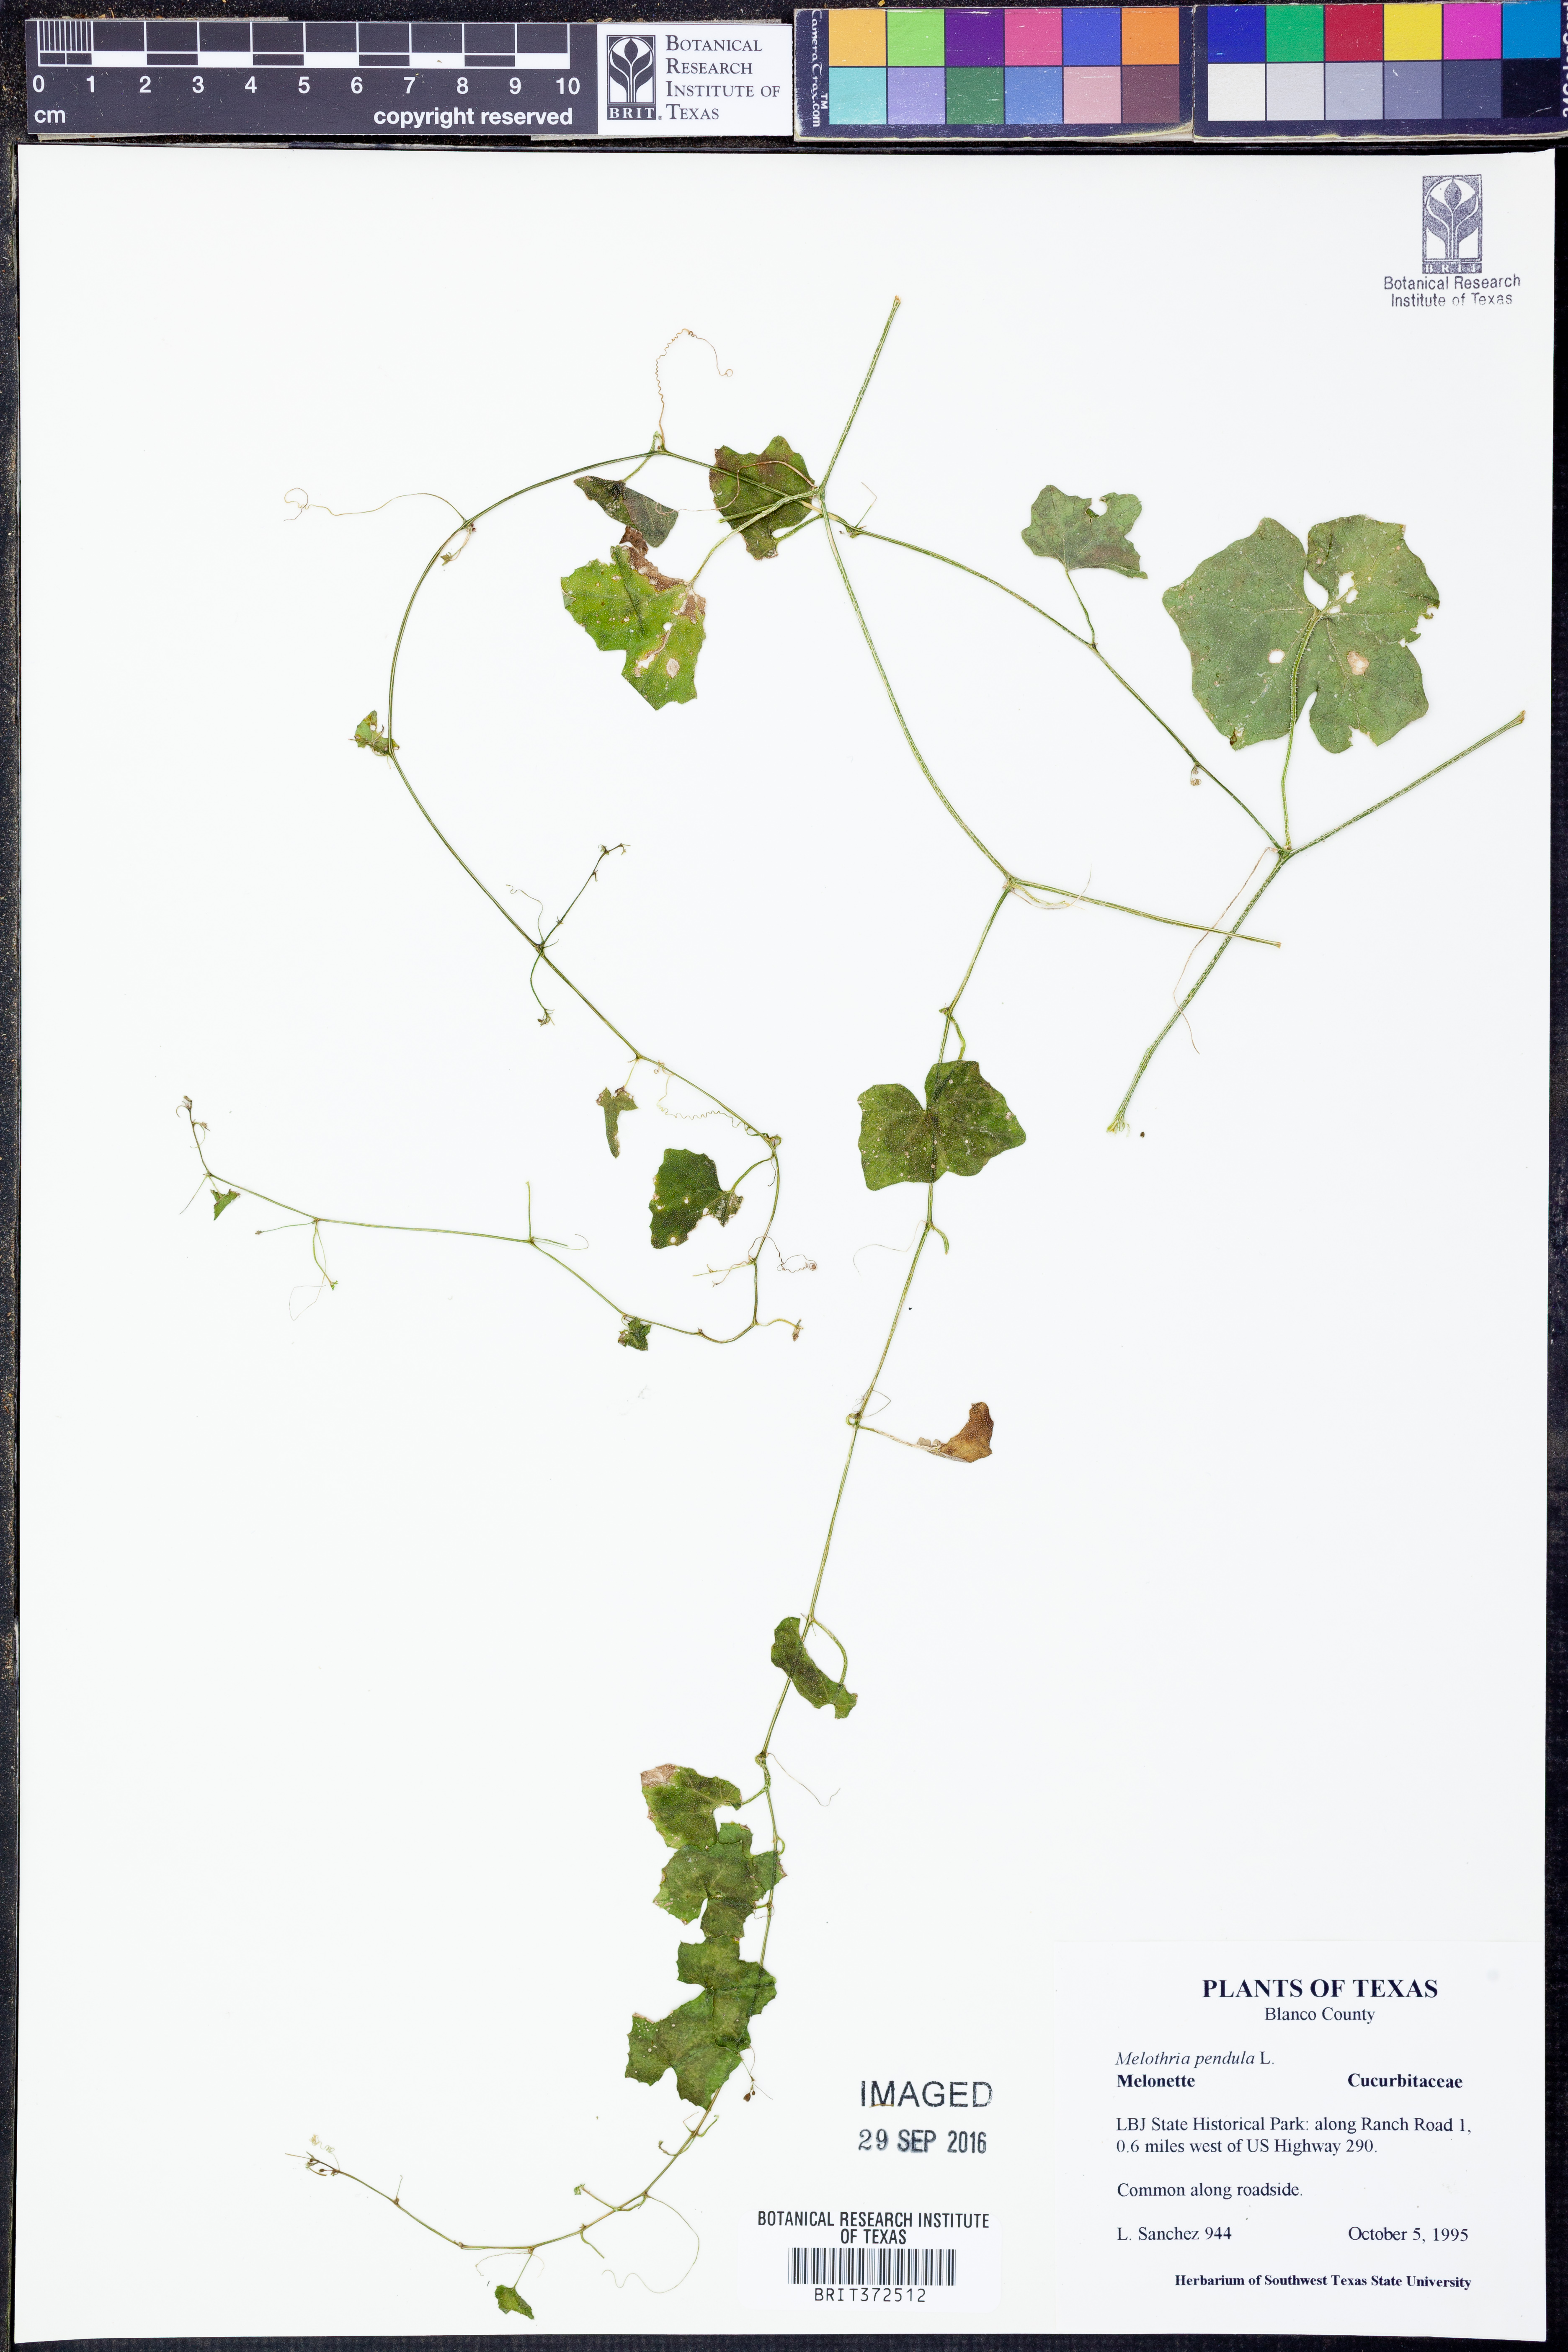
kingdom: Plantae
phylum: Tracheophyta
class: Magnoliopsida
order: Cucurbitales
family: Cucurbitaceae
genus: Melothria
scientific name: Melothria pendula
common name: Creeping-cucumber
